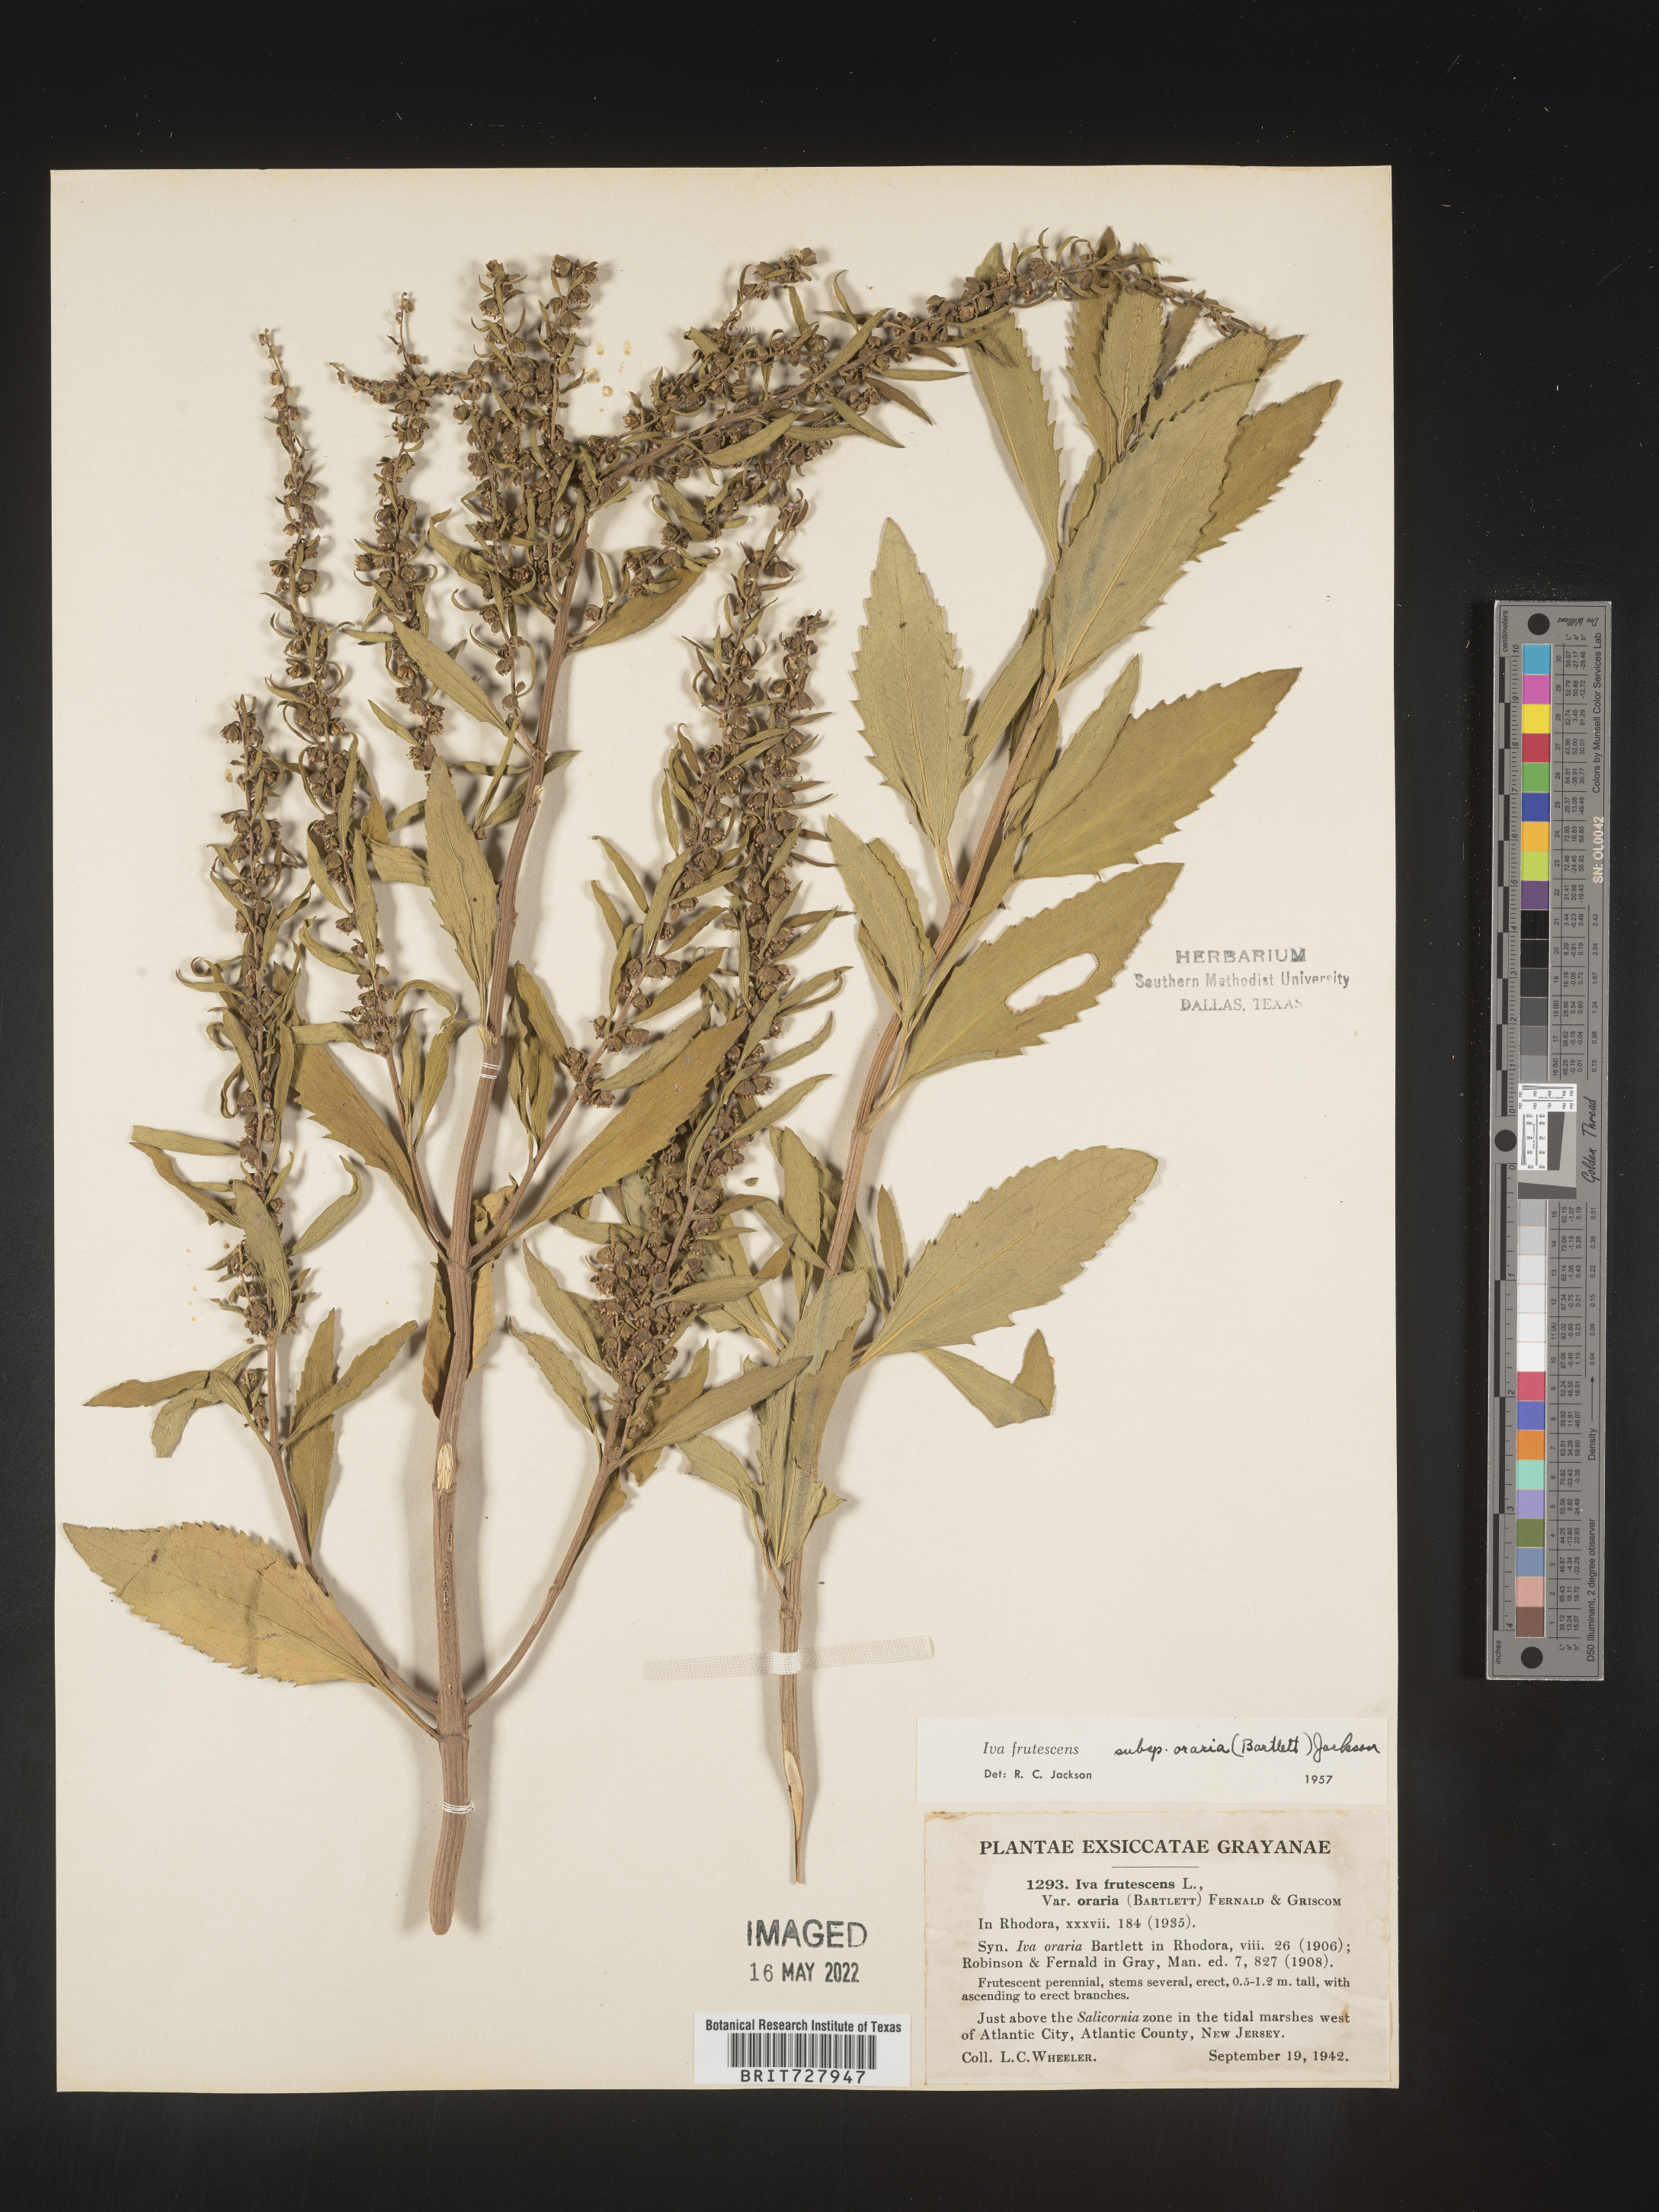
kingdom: Plantae
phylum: Tracheophyta
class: Magnoliopsida
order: Asterales
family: Asteraceae
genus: Iva
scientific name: Iva frutescens
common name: Big-leaved marsh-elder
